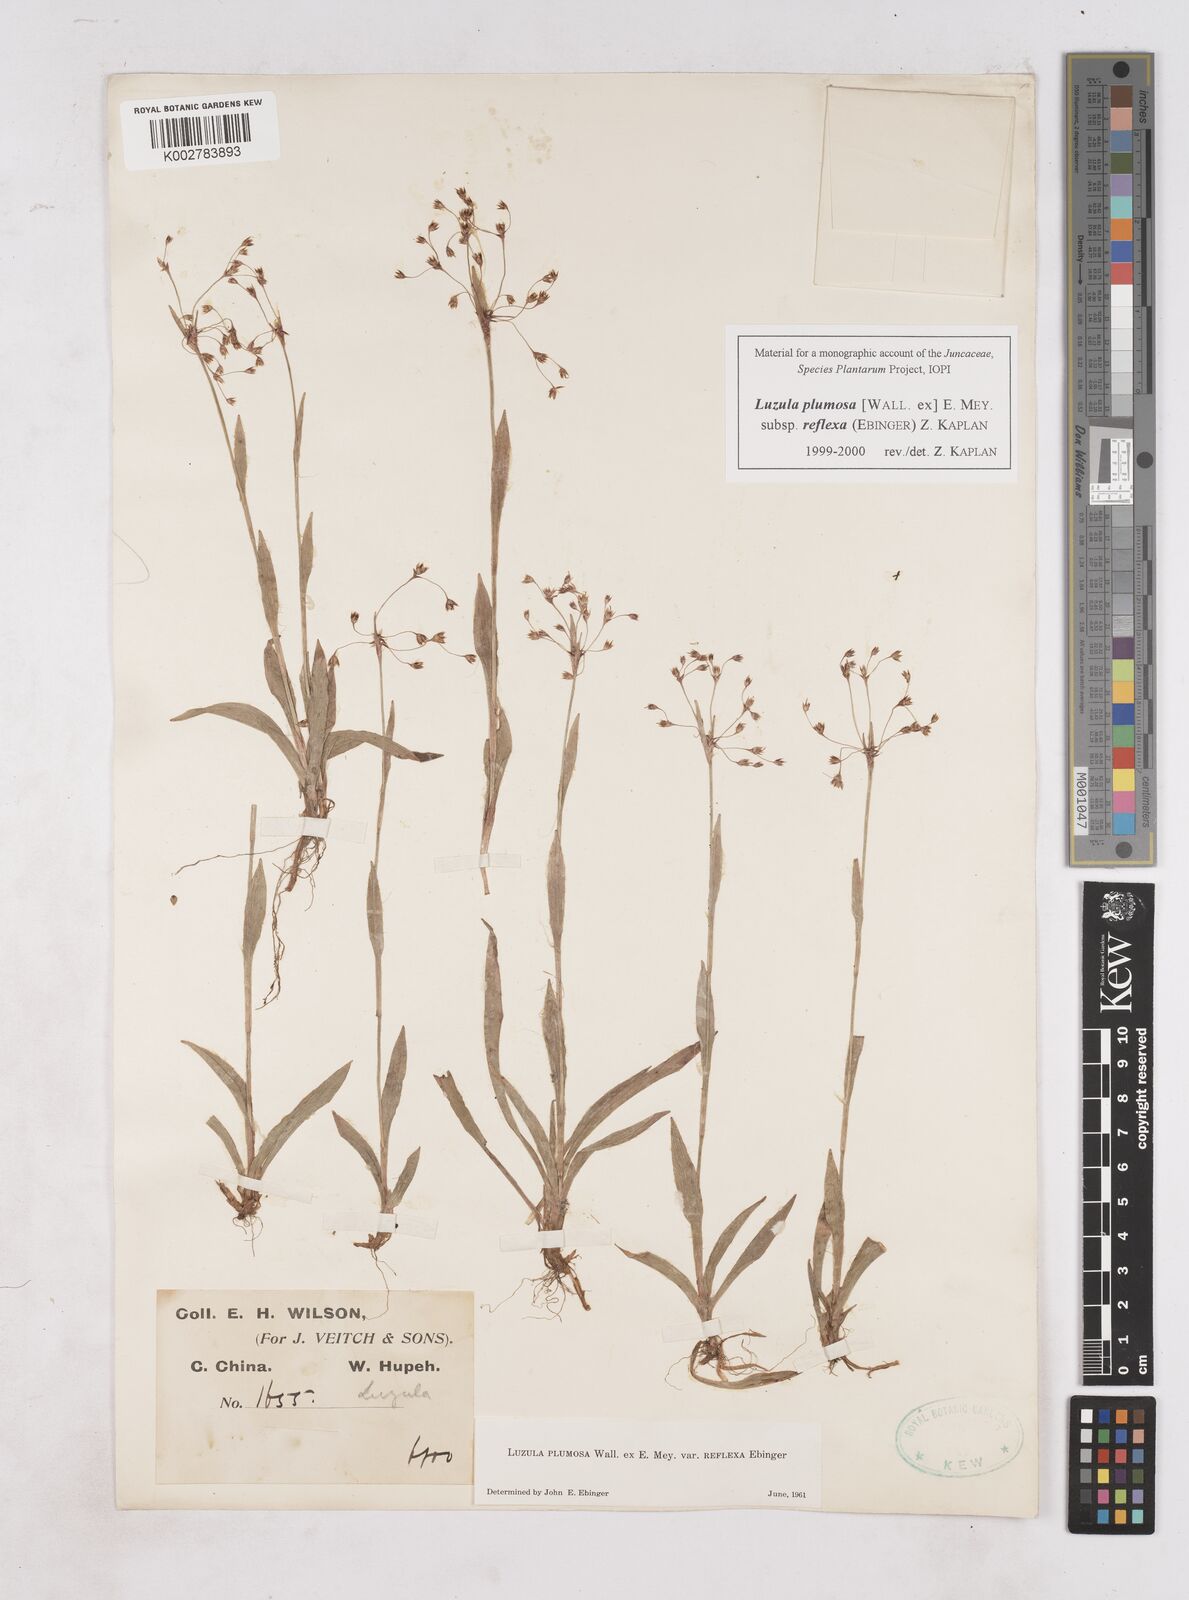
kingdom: Plantae
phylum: Tracheophyta
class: Liliopsida
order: Poales
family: Juncaceae
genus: Luzula
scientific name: Luzula plumosa
